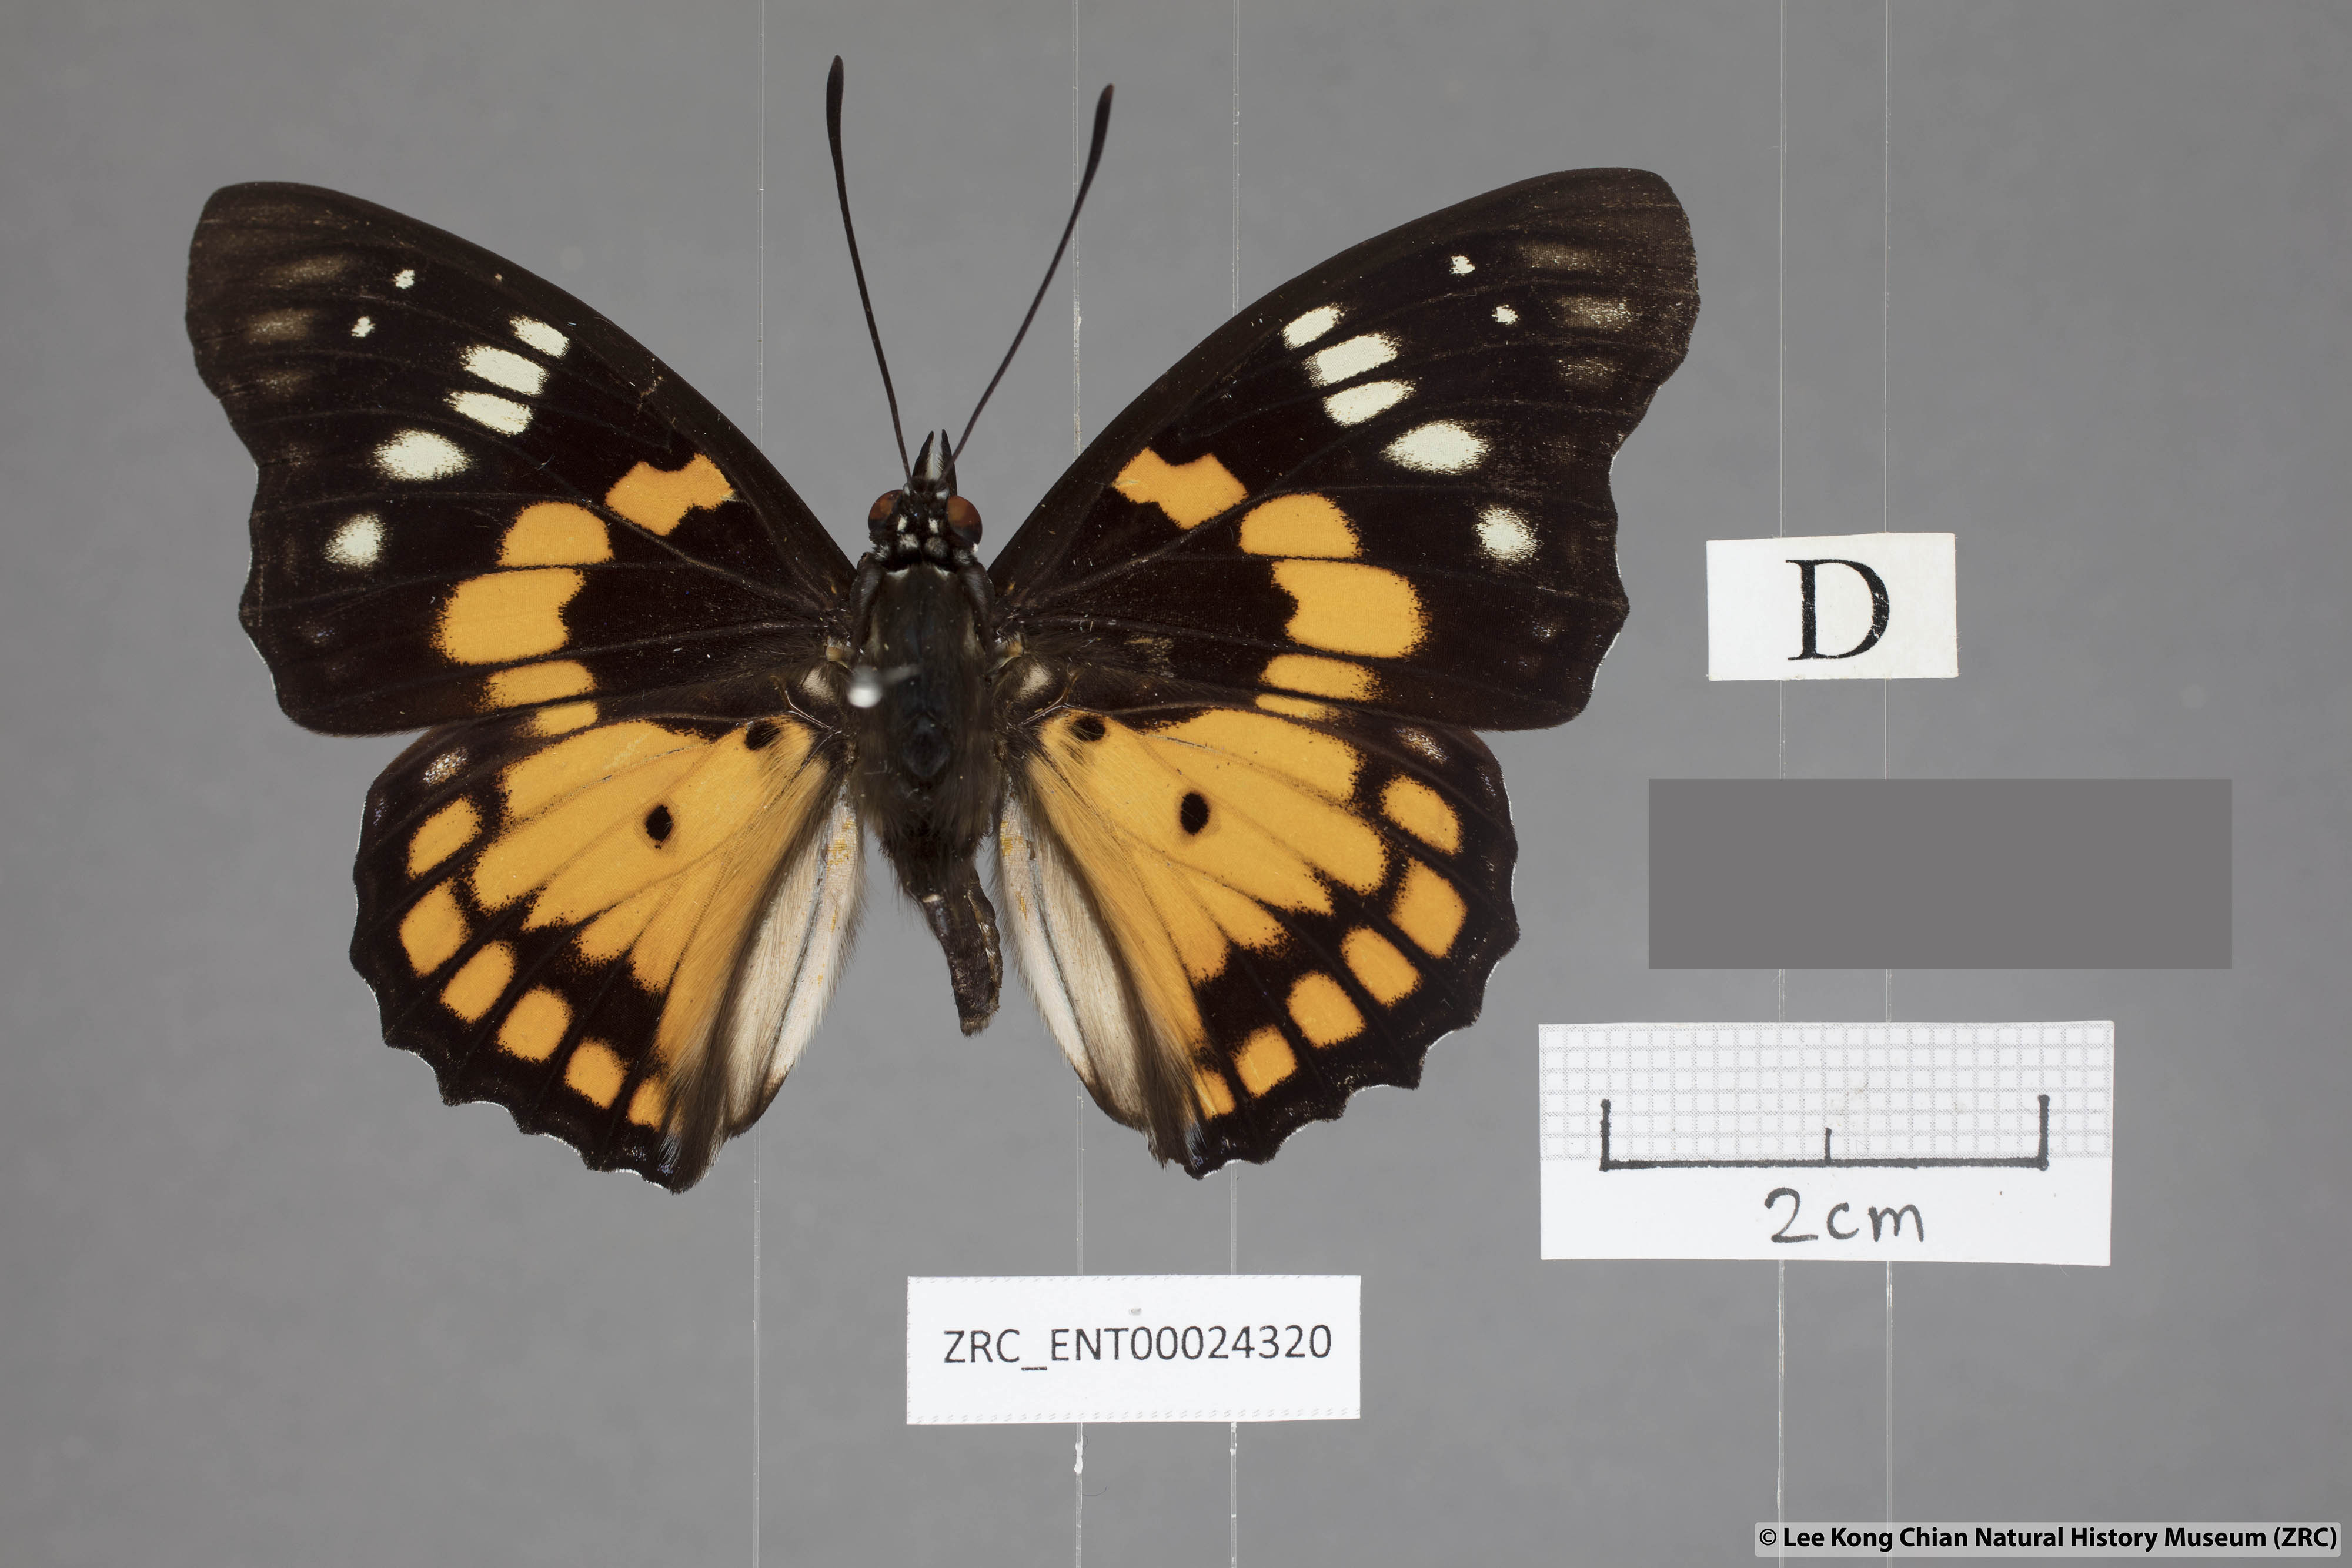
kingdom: Animalia
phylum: Arthropoda
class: Insecta
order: Lepidoptera
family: Nymphalidae
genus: Sephisa
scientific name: Sephisa chandra
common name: Eastern courtier
